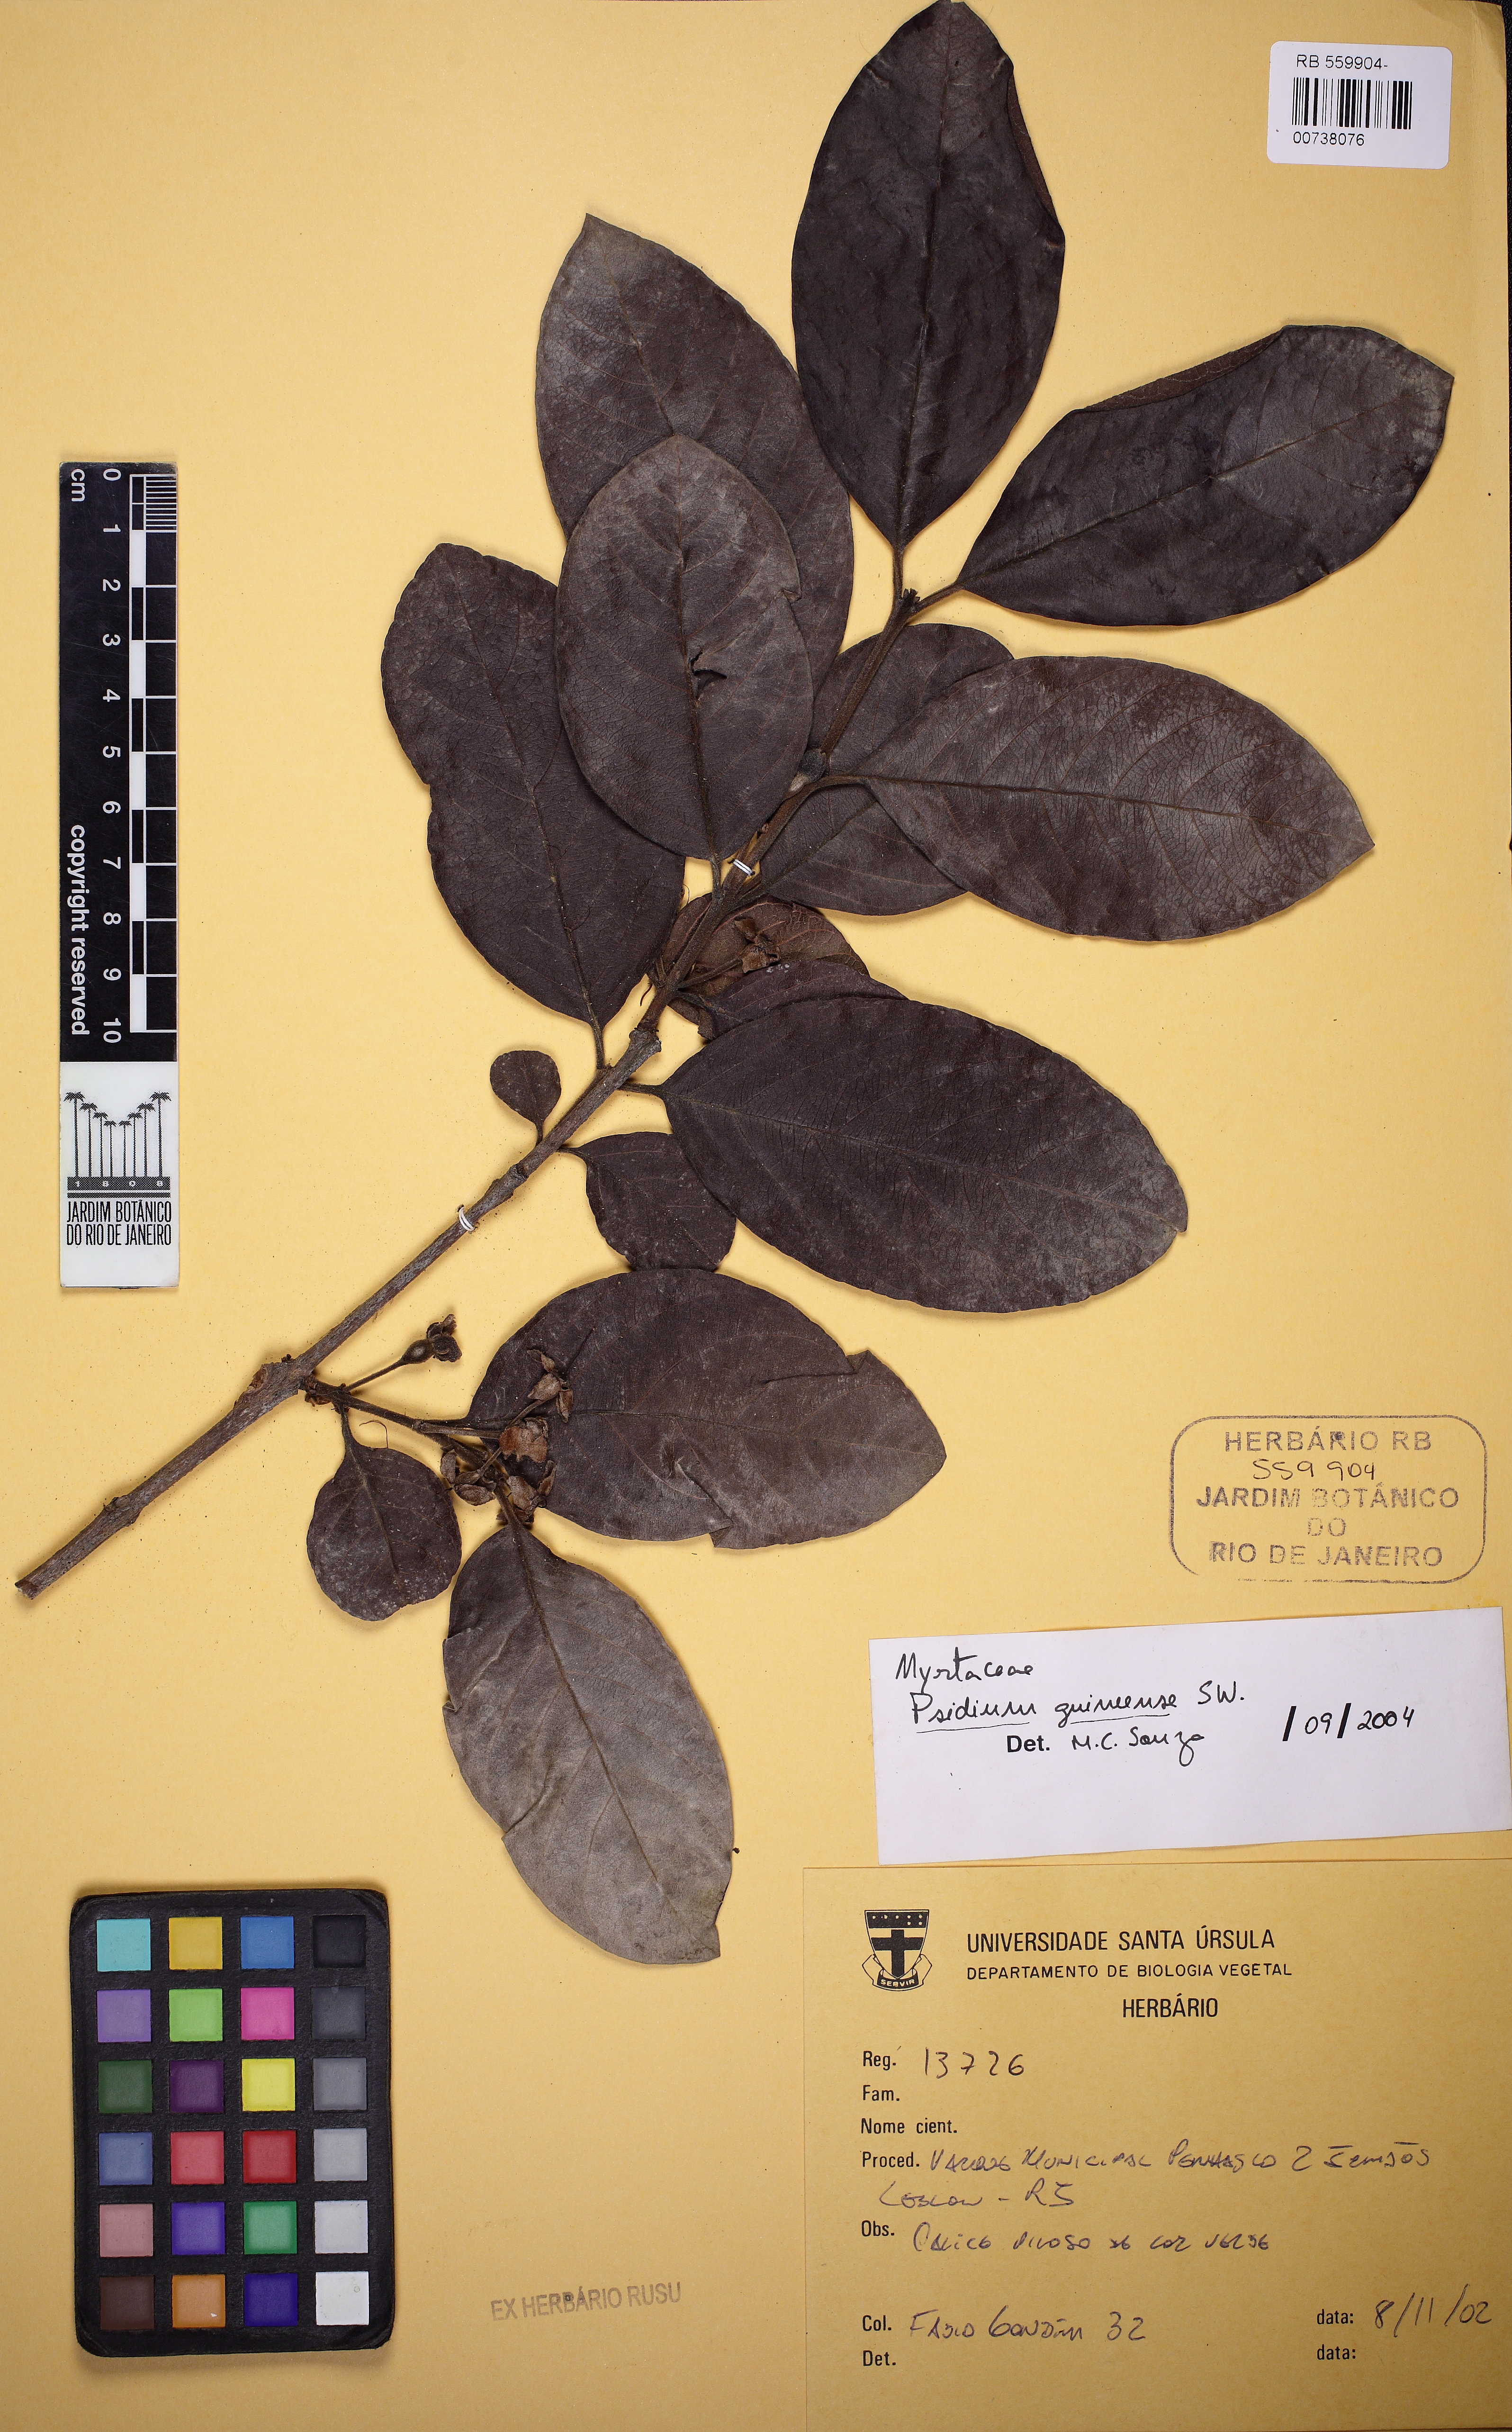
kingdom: Plantae
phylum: Tracheophyta
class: Magnoliopsida
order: Myrtales
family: Myrtaceae
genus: Psidium
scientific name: Psidium guineense
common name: Brazilian guava
